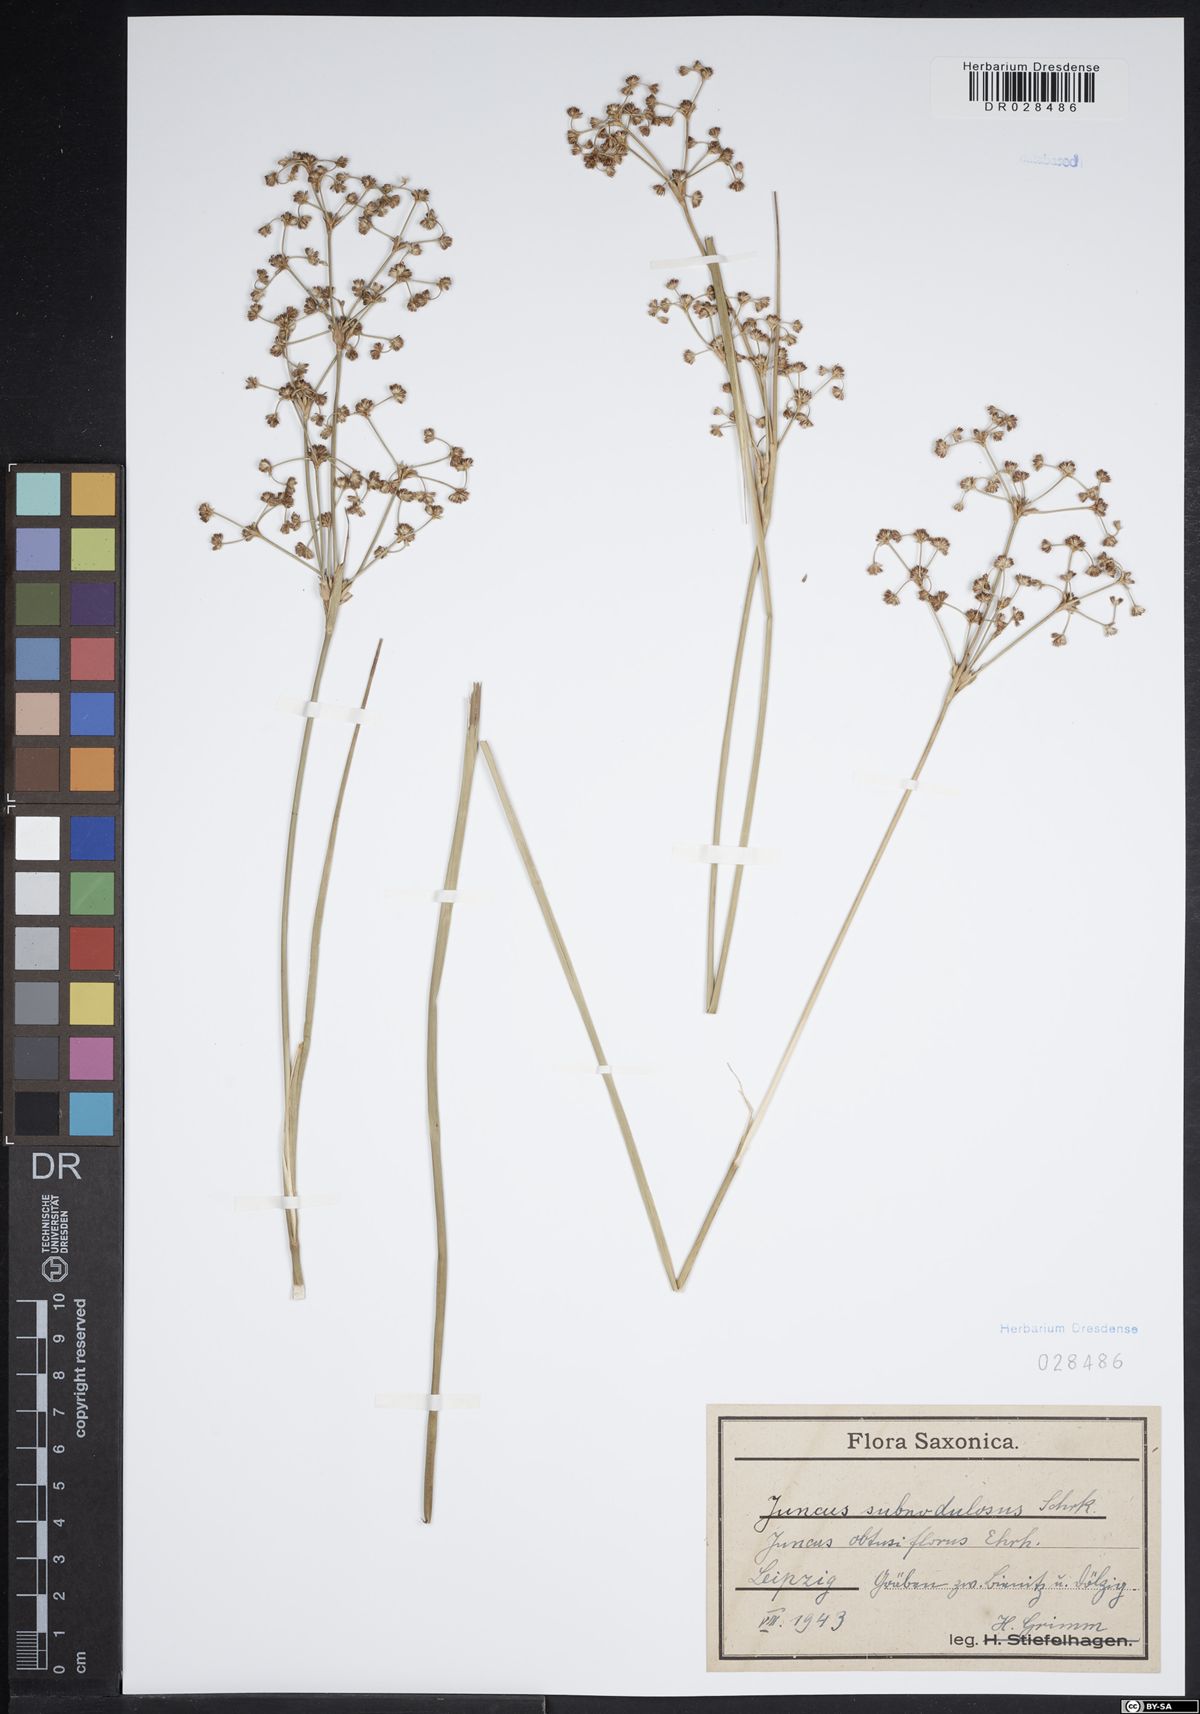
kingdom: Plantae
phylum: Tracheophyta
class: Liliopsida
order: Poales
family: Juncaceae
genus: Juncus
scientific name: Juncus subnodulosus
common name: Blunt-flowered rush
